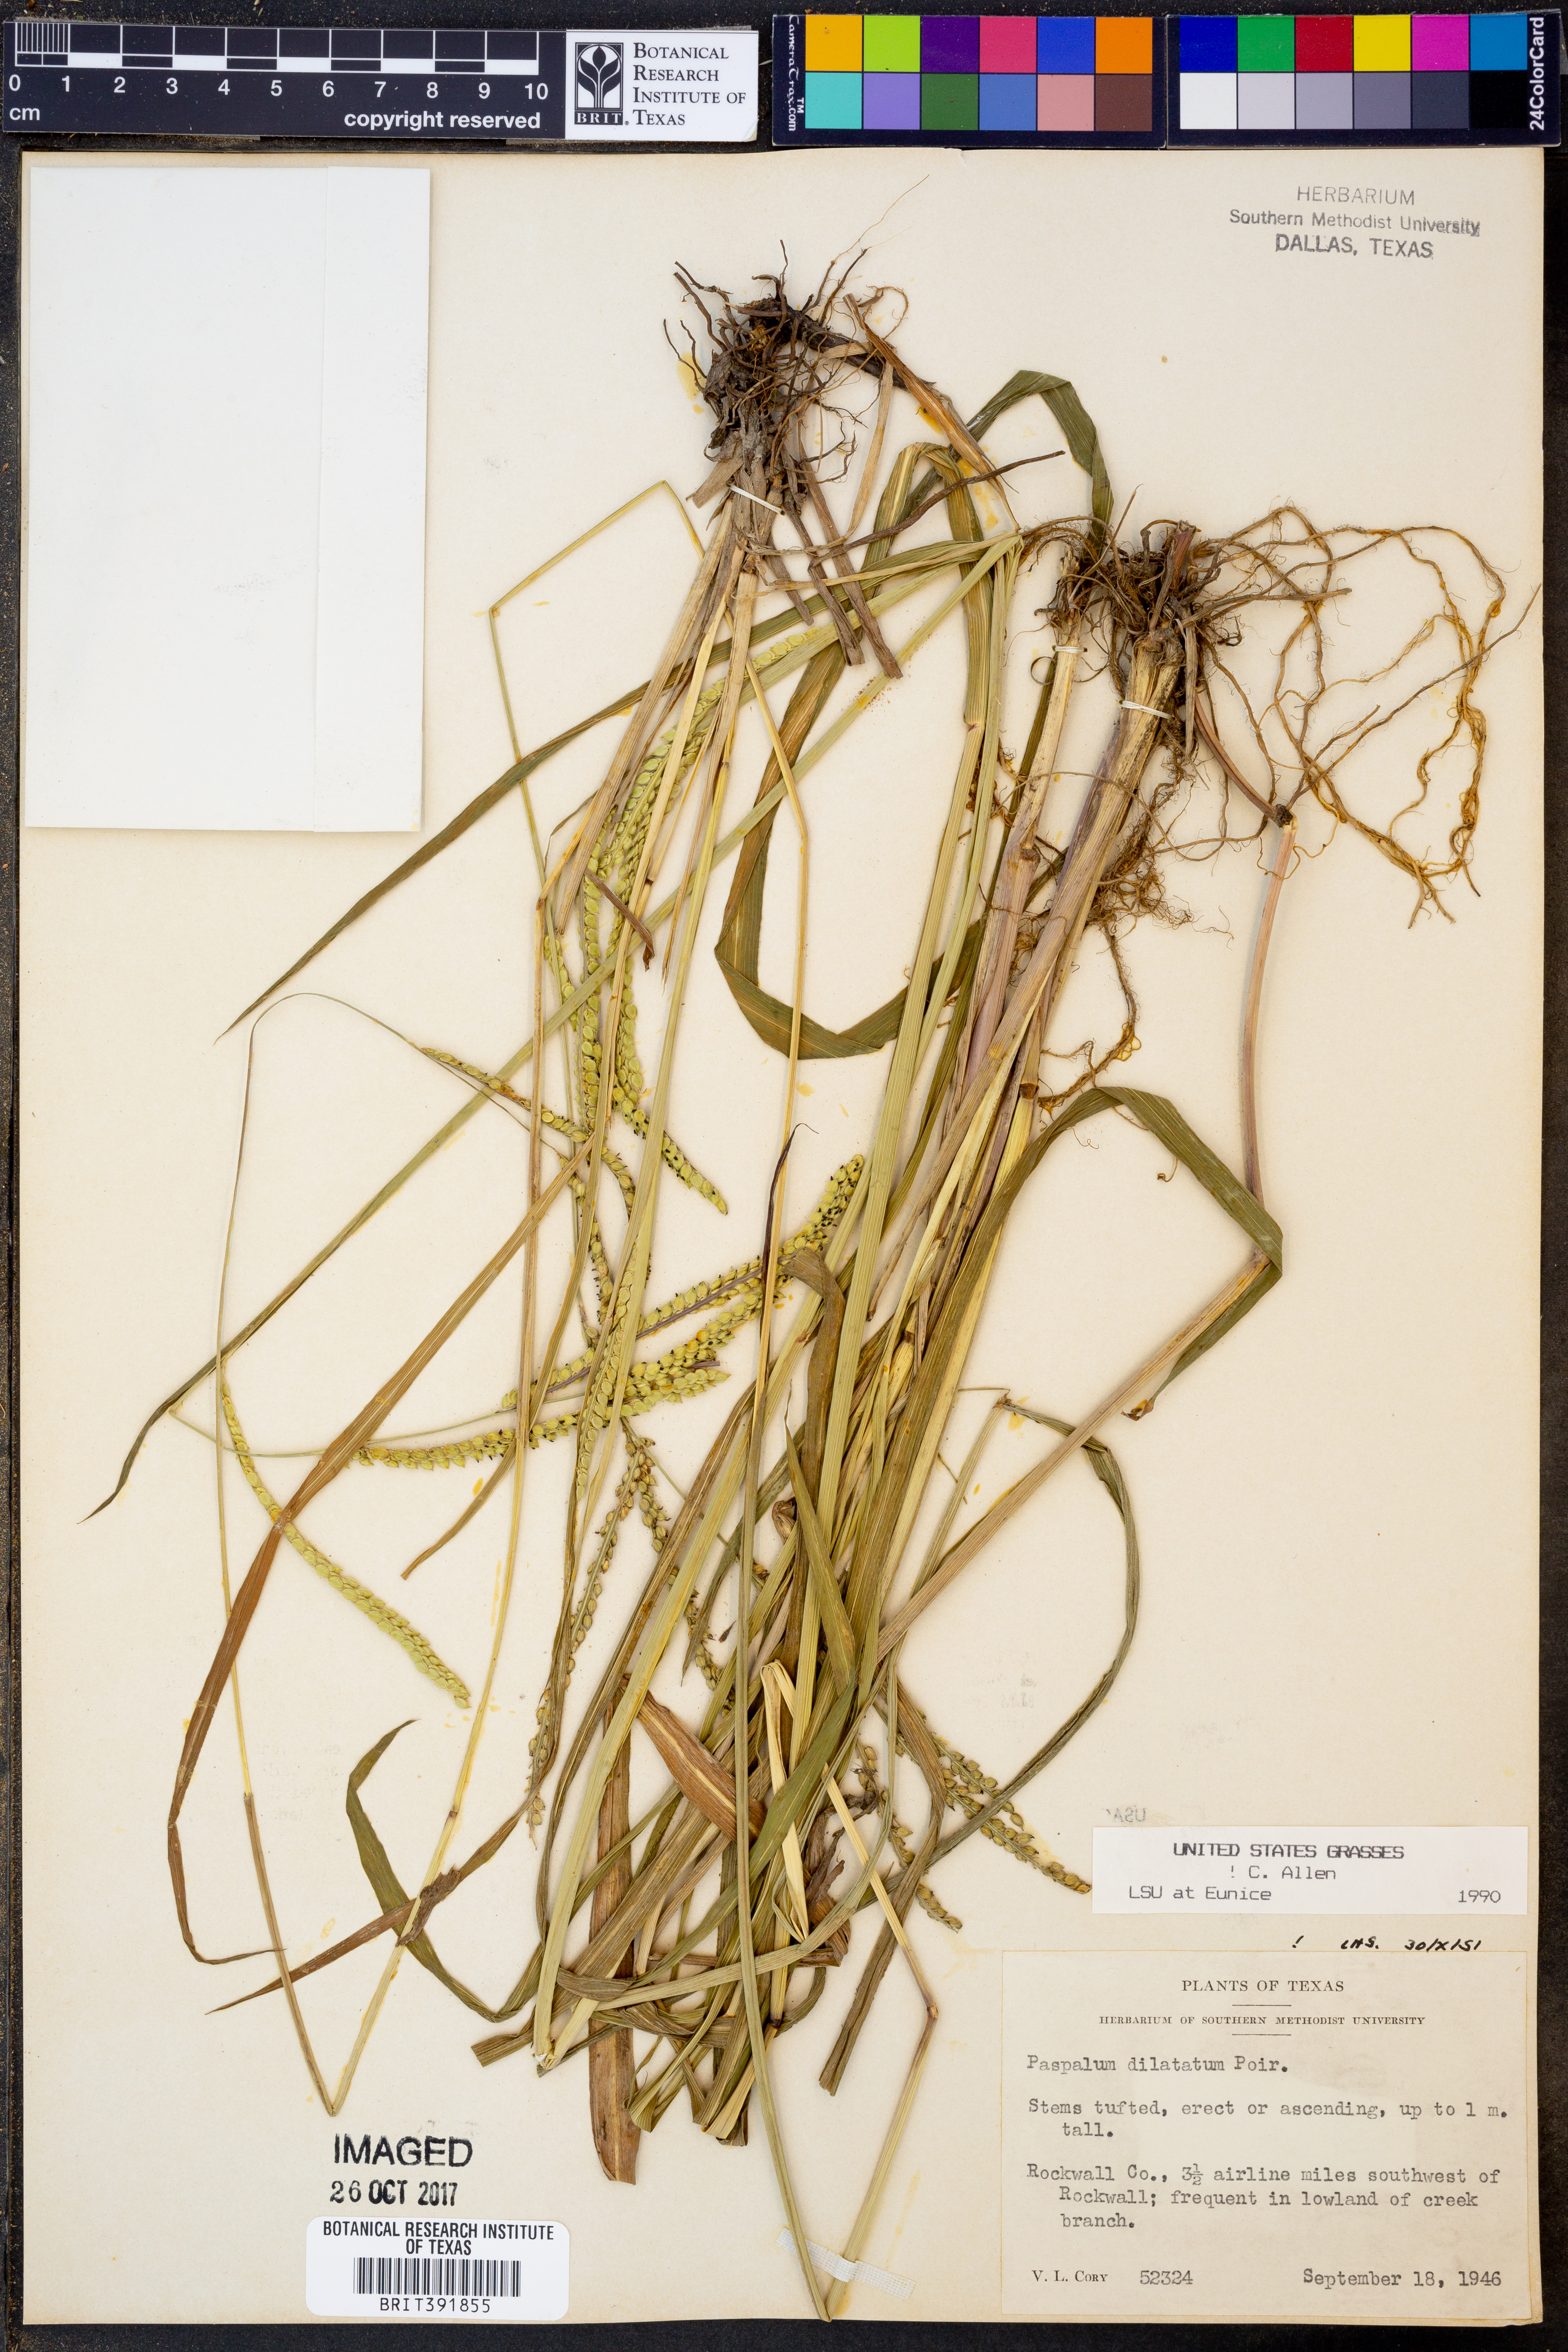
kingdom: Plantae
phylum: Tracheophyta
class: Liliopsida
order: Poales
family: Poaceae
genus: Paspalum
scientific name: Paspalum dilatatum
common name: Dallisgrass
